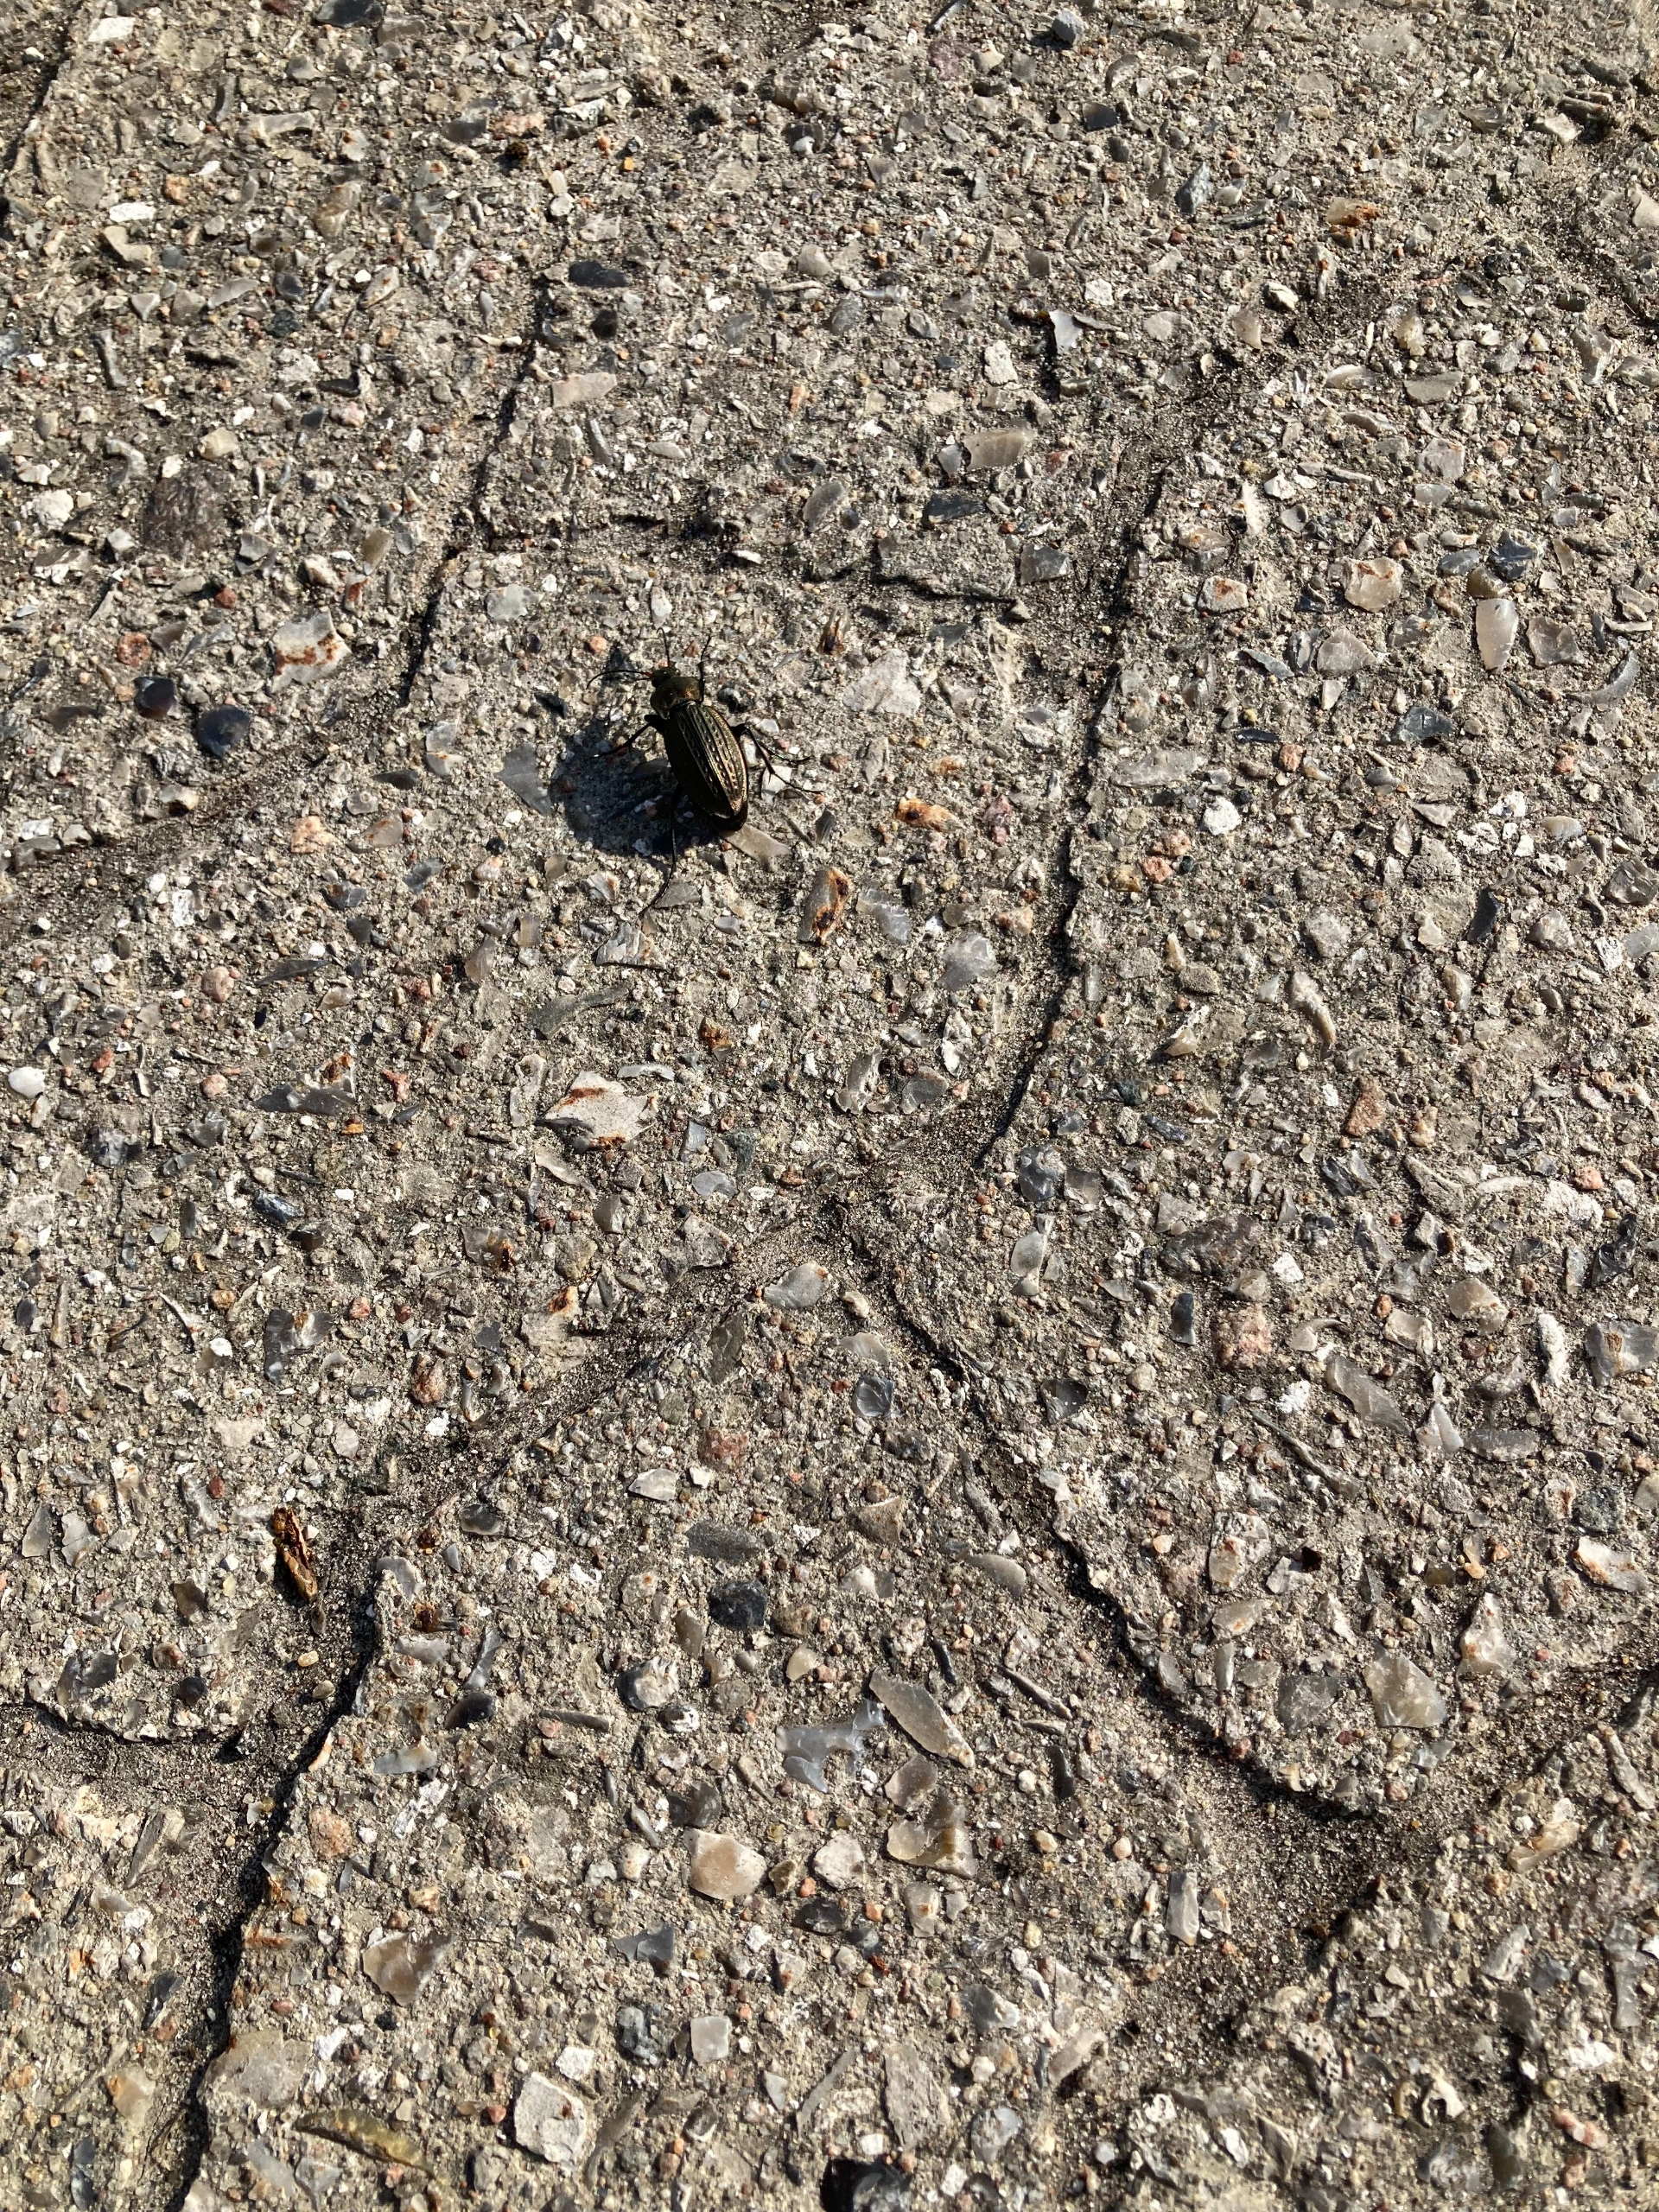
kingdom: Animalia
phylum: Arthropoda
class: Insecta
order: Coleoptera
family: Carabidae
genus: Carabus
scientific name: Carabus cancellatus
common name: Overdrevsløber
